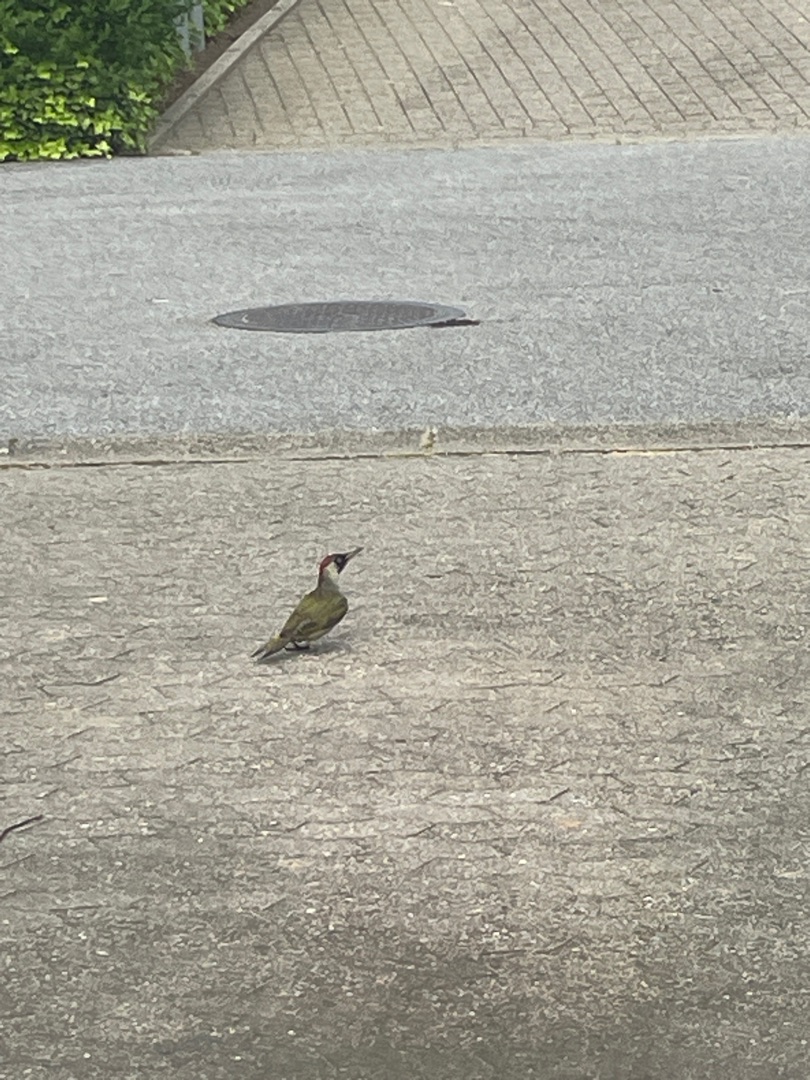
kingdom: Animalia
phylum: Chordata
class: Aves
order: Piciformes
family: Picidae
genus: Picus
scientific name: Picus viridis
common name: Grønspætte
